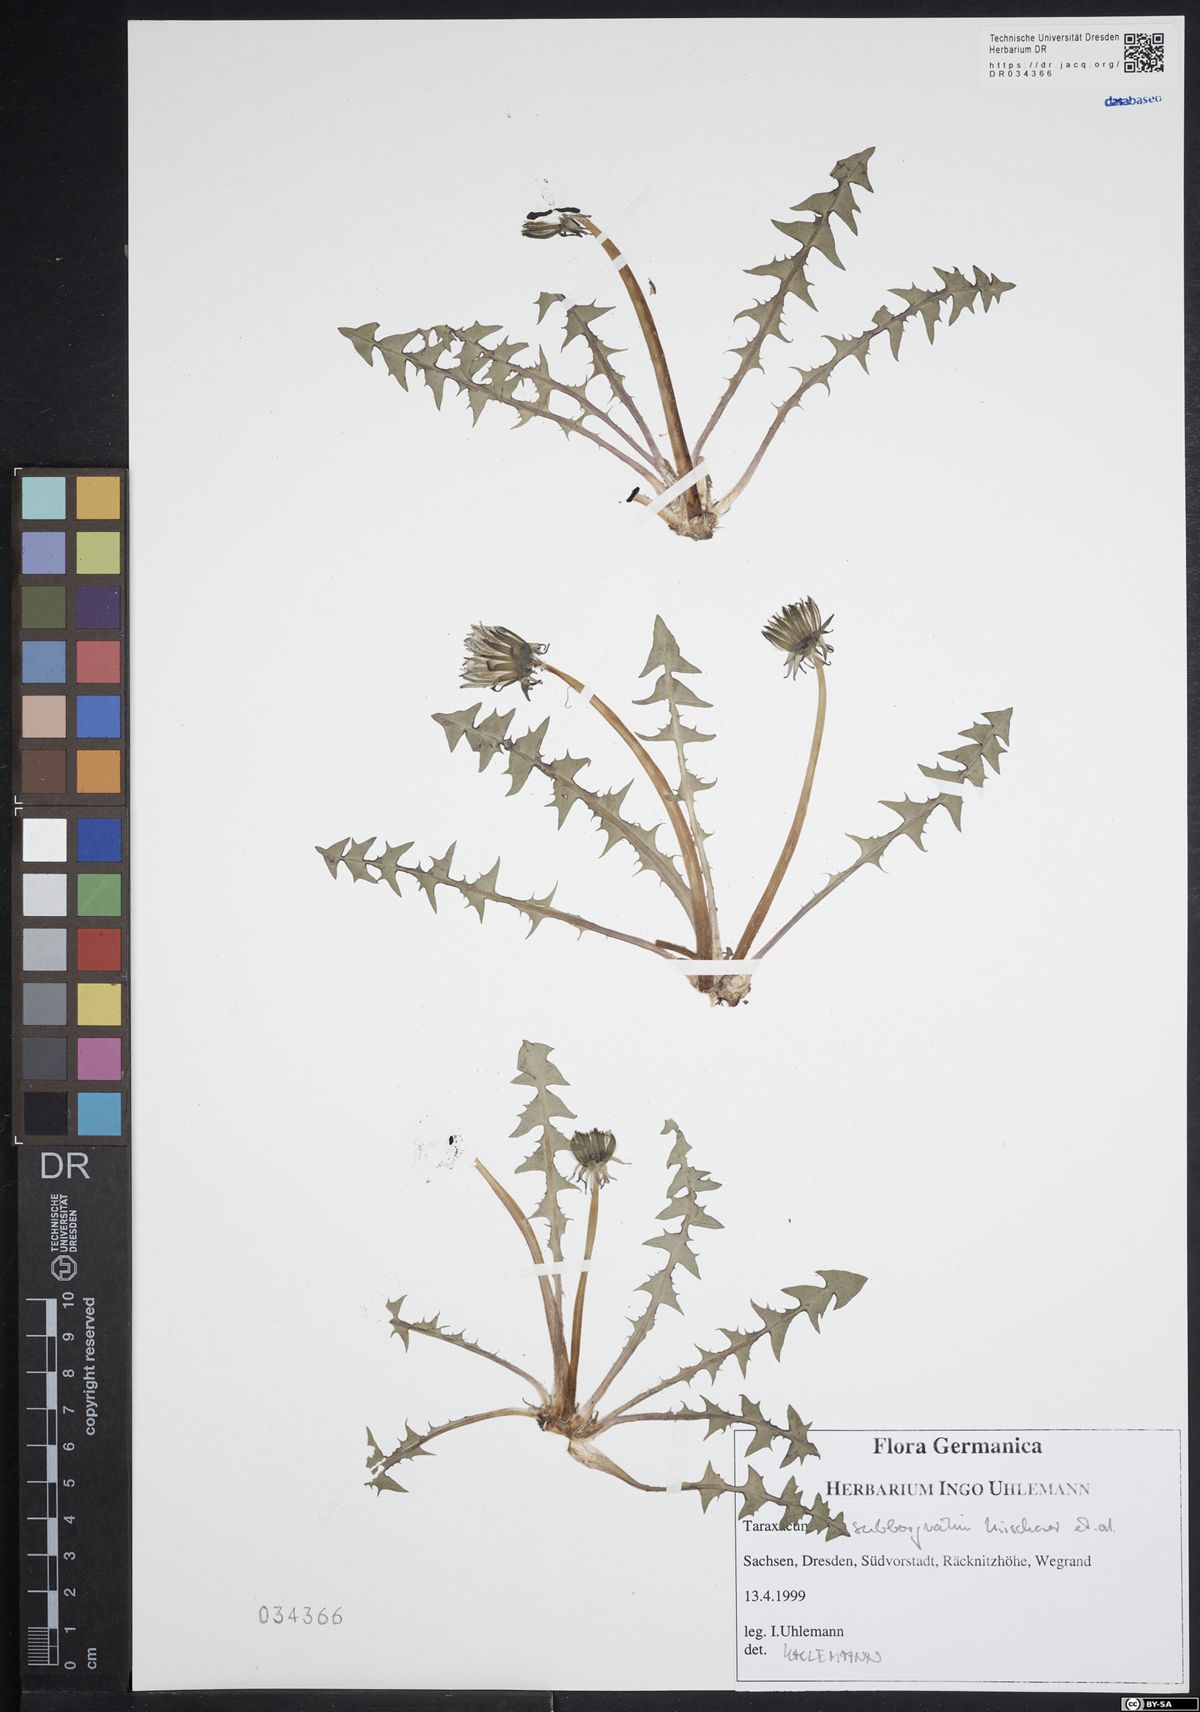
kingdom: Plantae
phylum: Tracheophyta
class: Magnoliopsida
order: Asterales
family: Asteraceae
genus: Taraxacum
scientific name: Taraxacum subborgvallii
